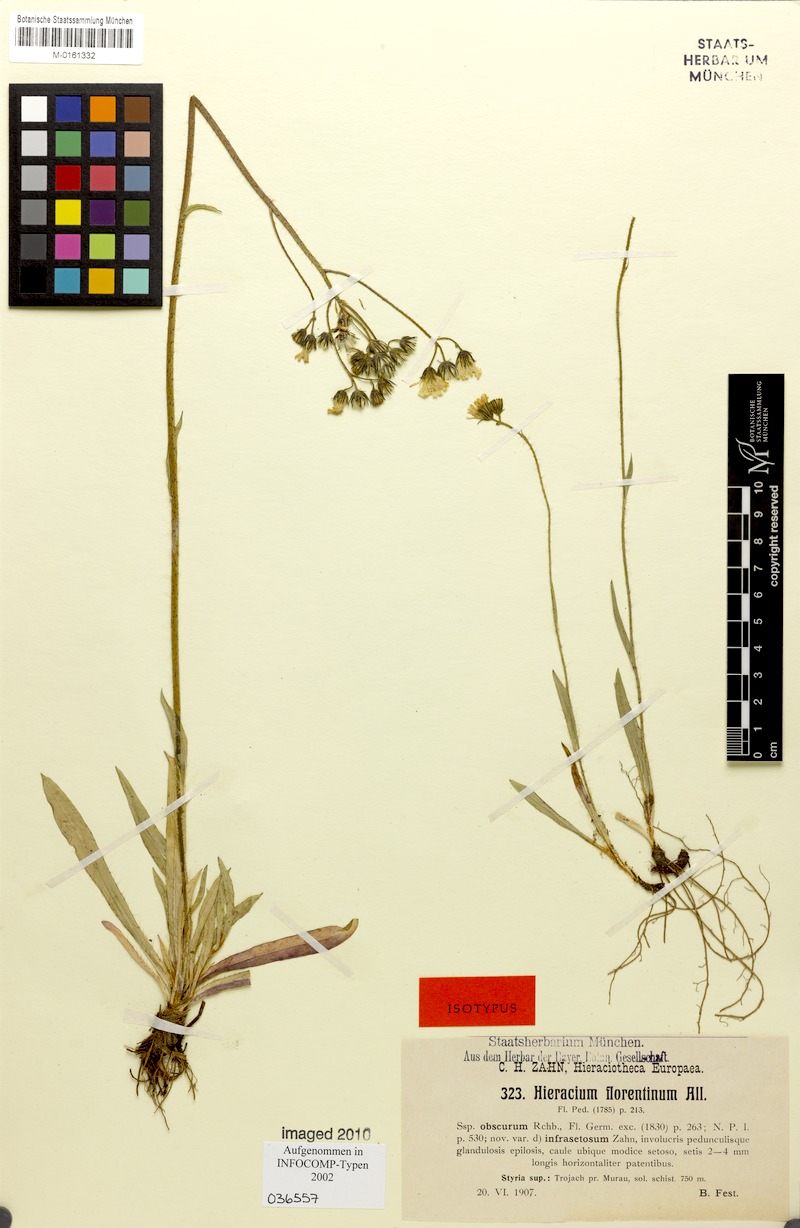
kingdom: Plantae
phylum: Tracheophyta
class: Magnoliopsida
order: Asterales
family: Asteraceae
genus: Pilosella
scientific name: Pilosella piloselloides
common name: Glaucous king-devil
